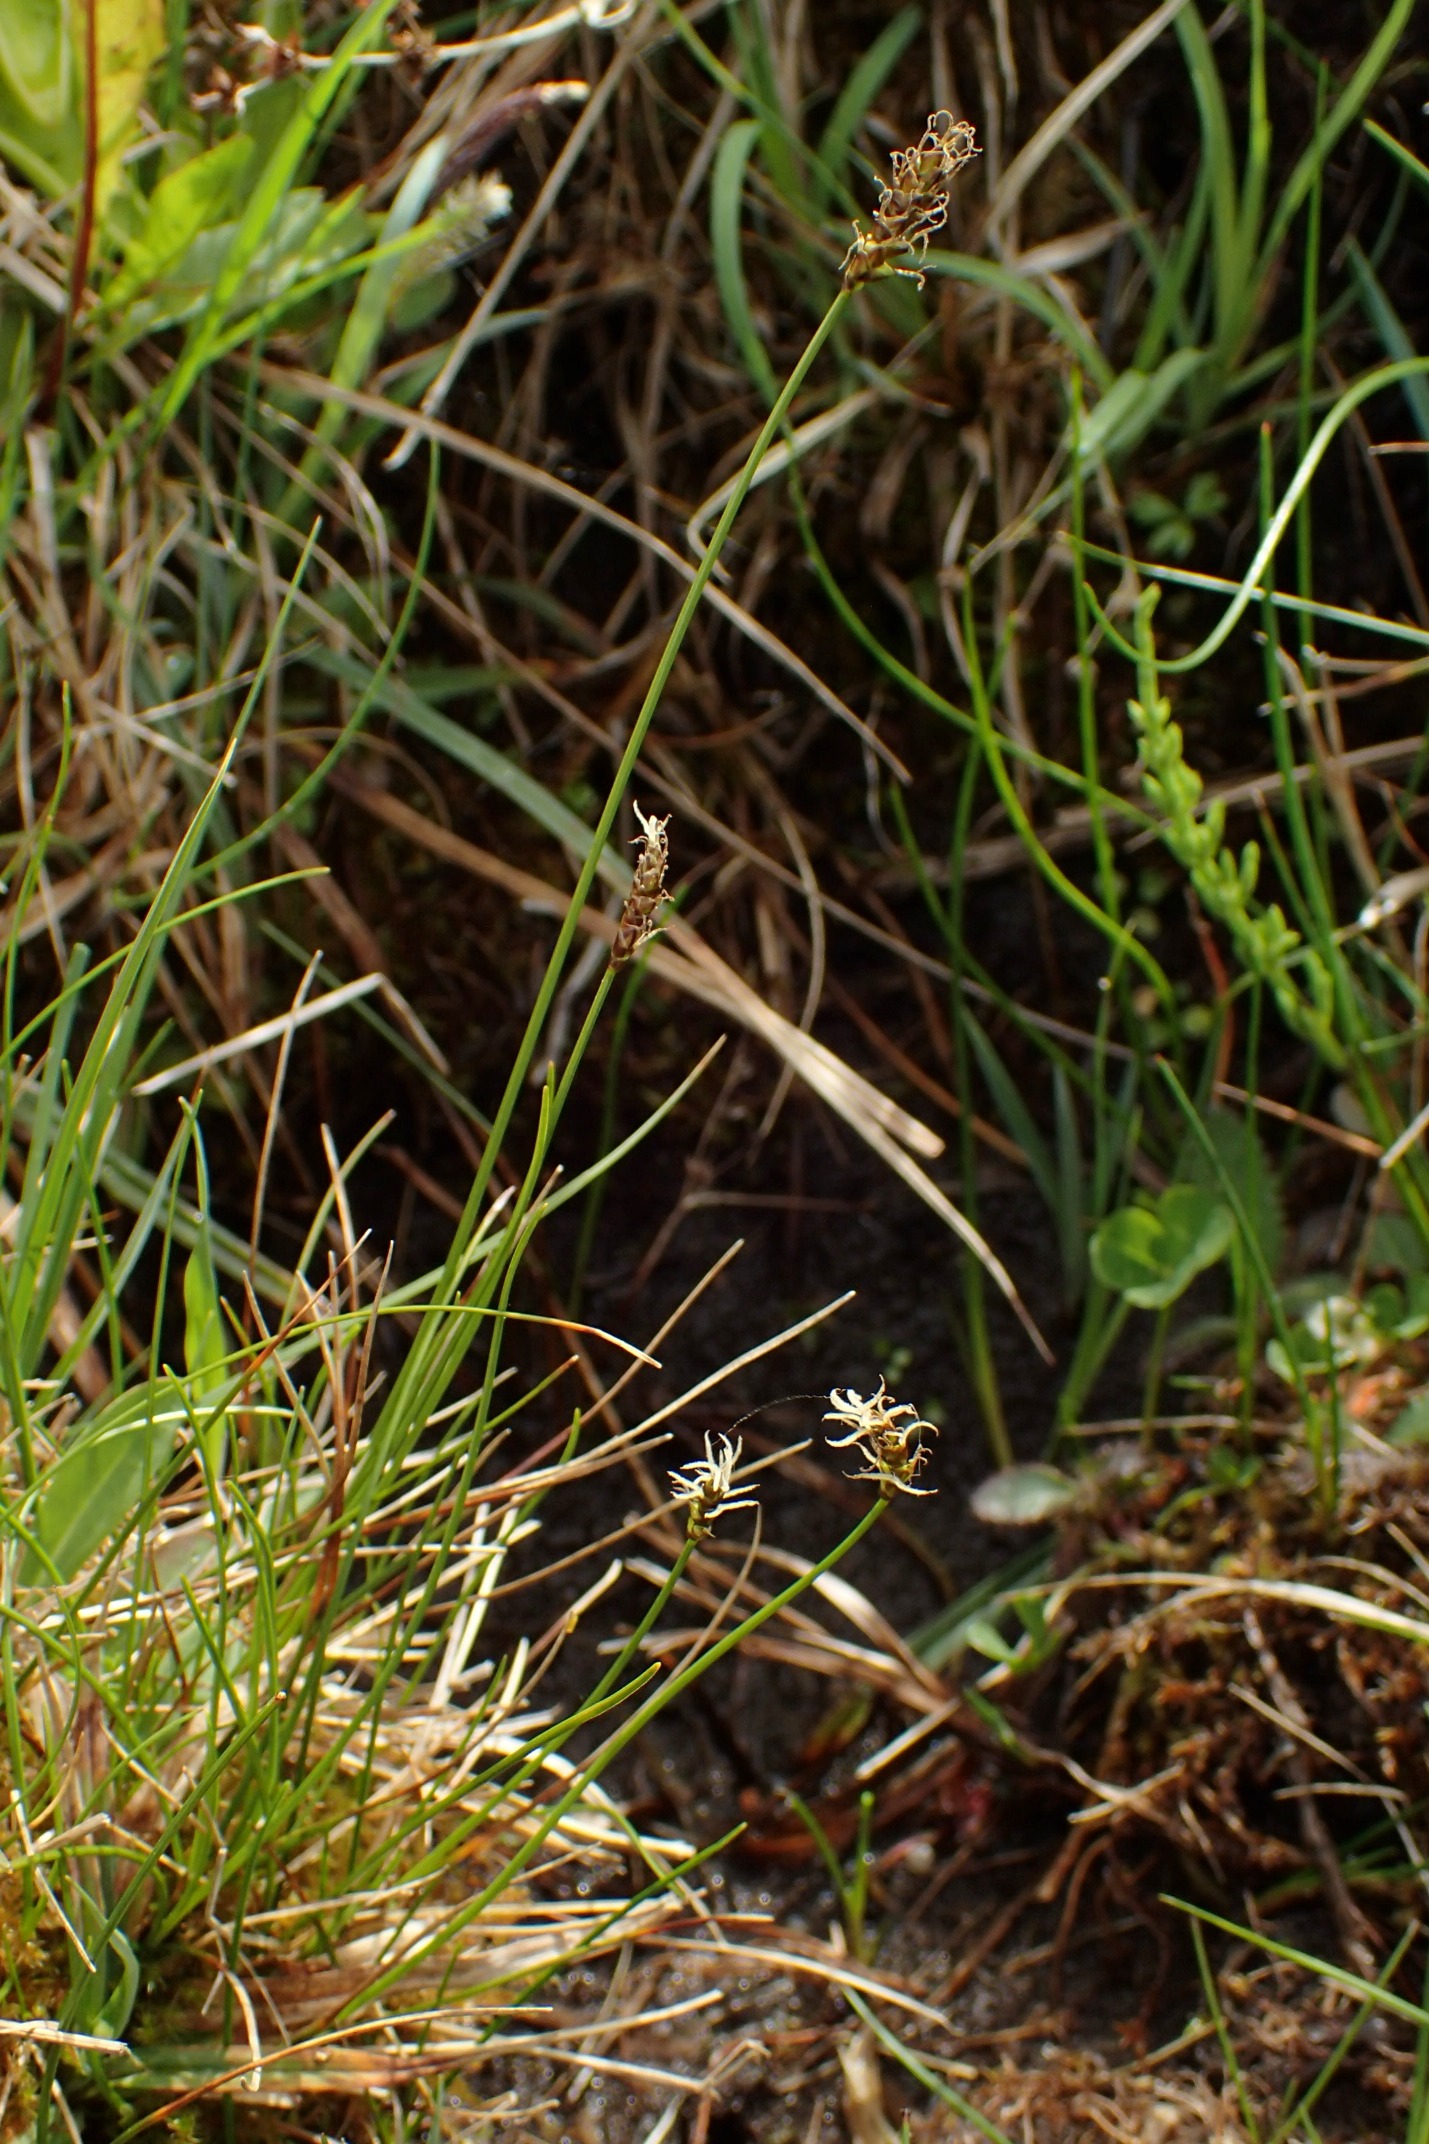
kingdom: Plantae
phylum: Tracheophyta
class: Liliopsida
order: Poales
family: Cyperaceae
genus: Carex
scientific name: Carex dioica
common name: Tvebo star
